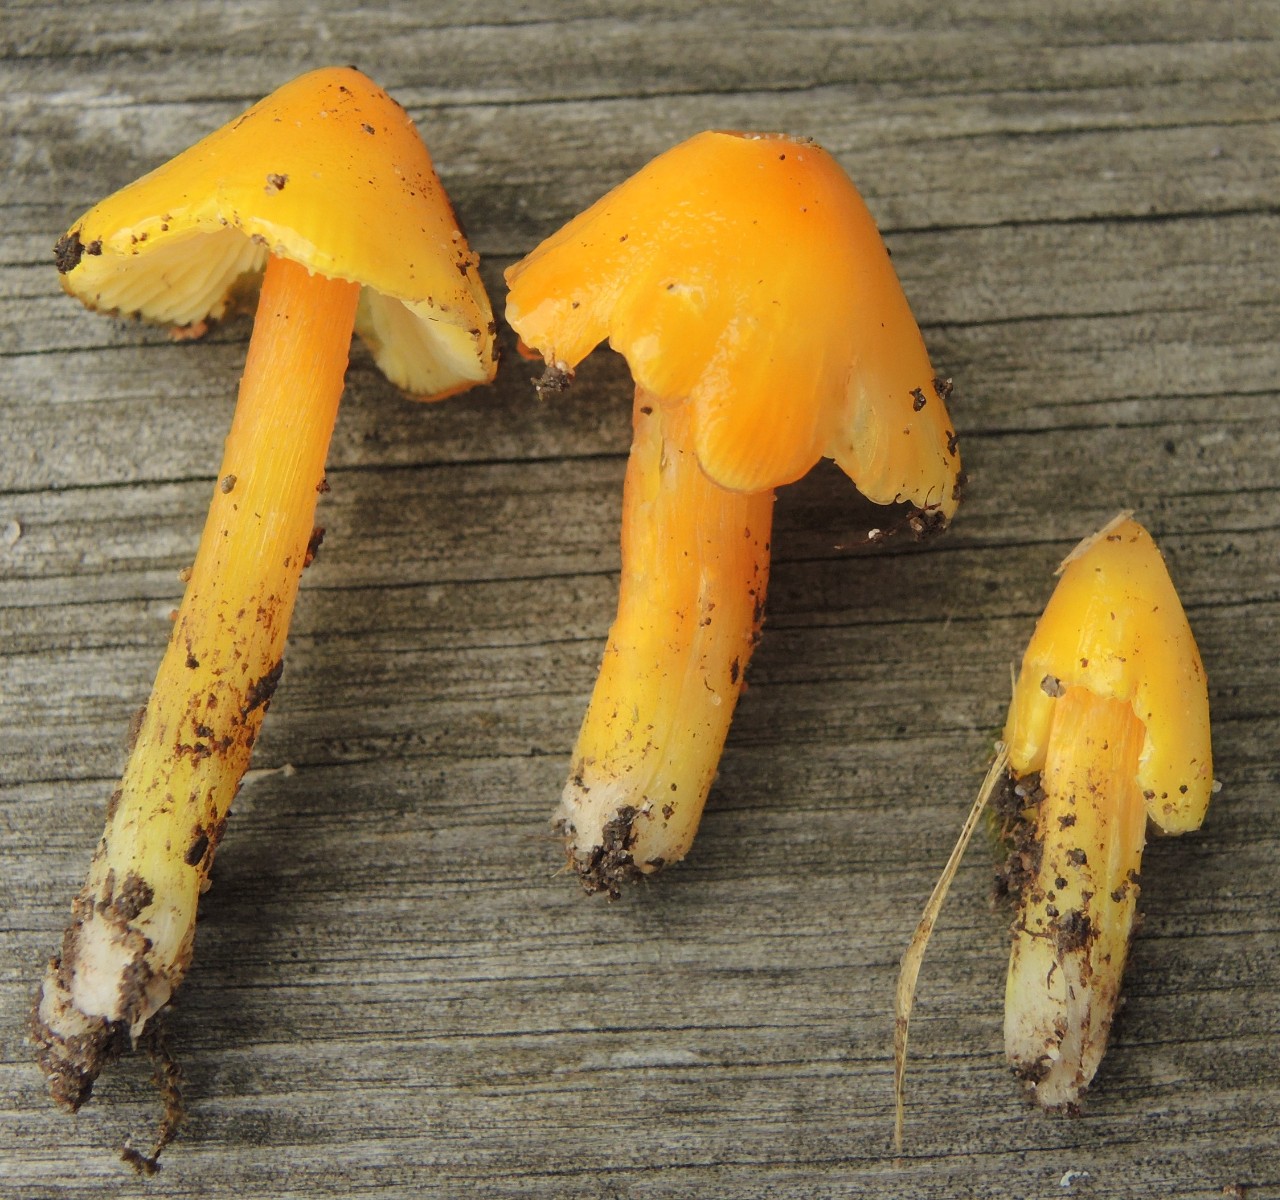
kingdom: Fungi
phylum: Basidiomycota
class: Agaricomycetes
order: Agaricales
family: Hygrophoraceae
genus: Hygrocybe
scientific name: Hygrocybe acutoconica
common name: spidspuklet vokshat
